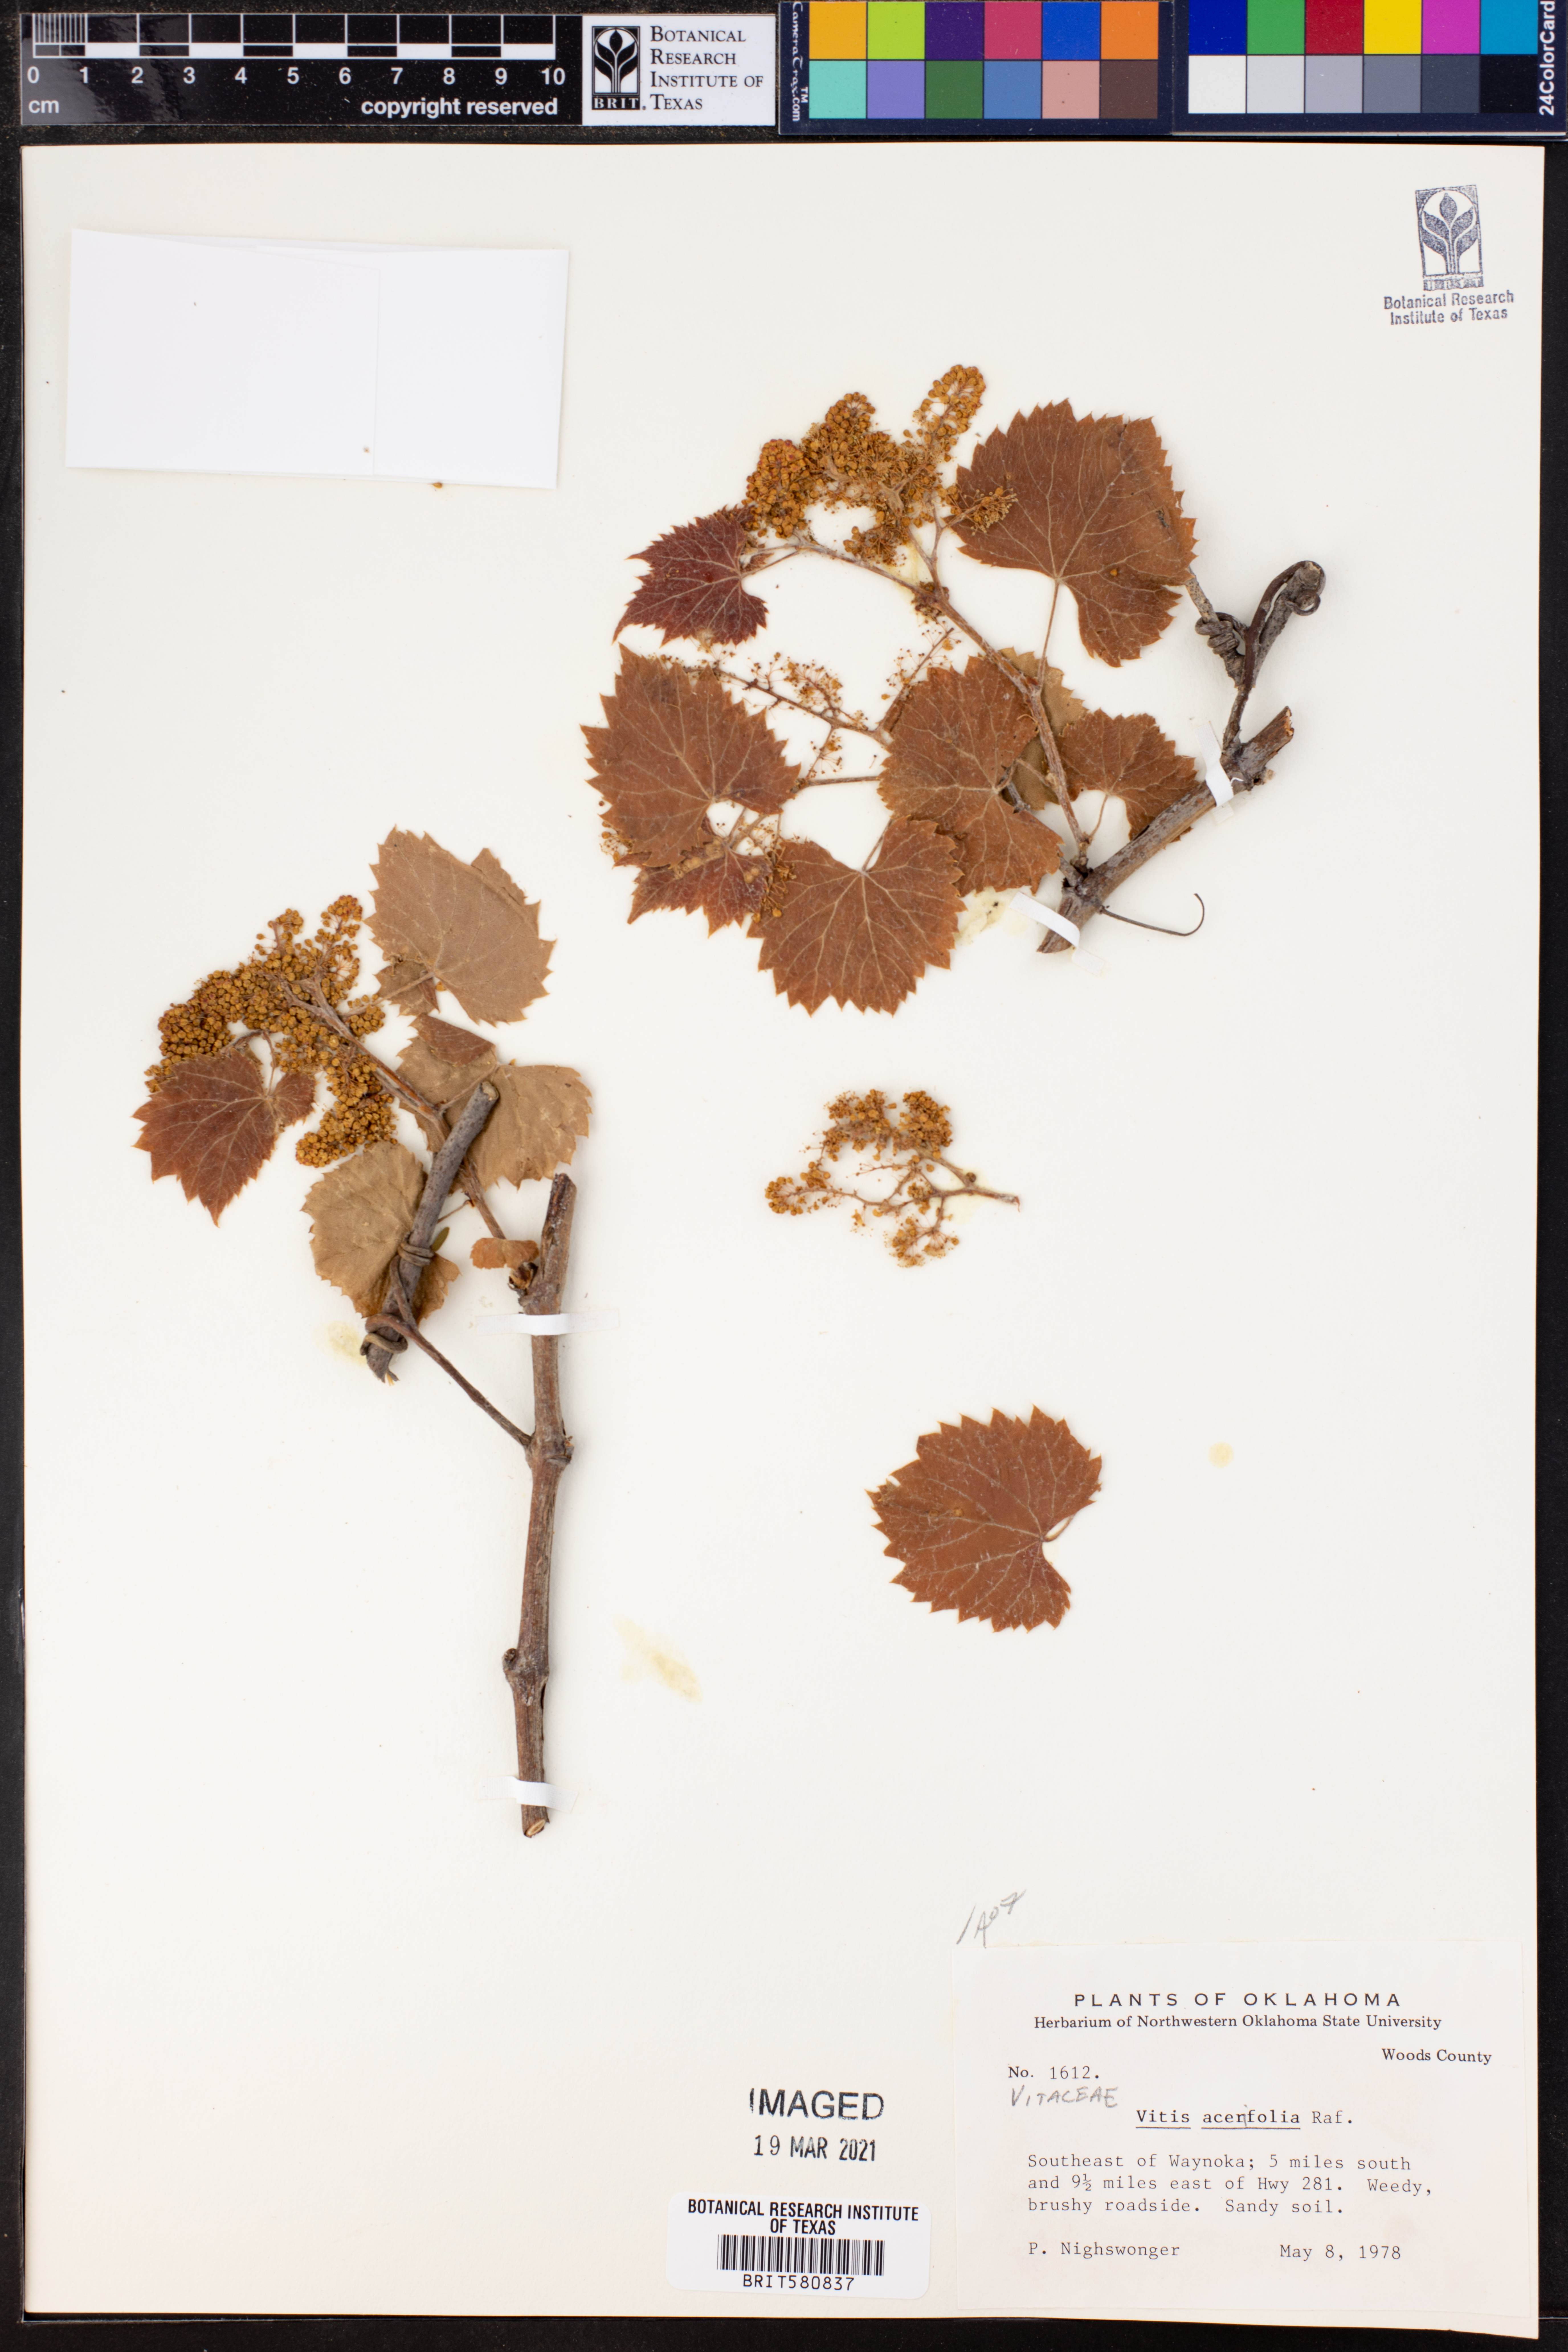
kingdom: Plantae
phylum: Tracheophyta
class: Magnoliopsida
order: Vitales
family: Vitaceae
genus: Vitis
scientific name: Vitis acerifolia
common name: Bush grape
